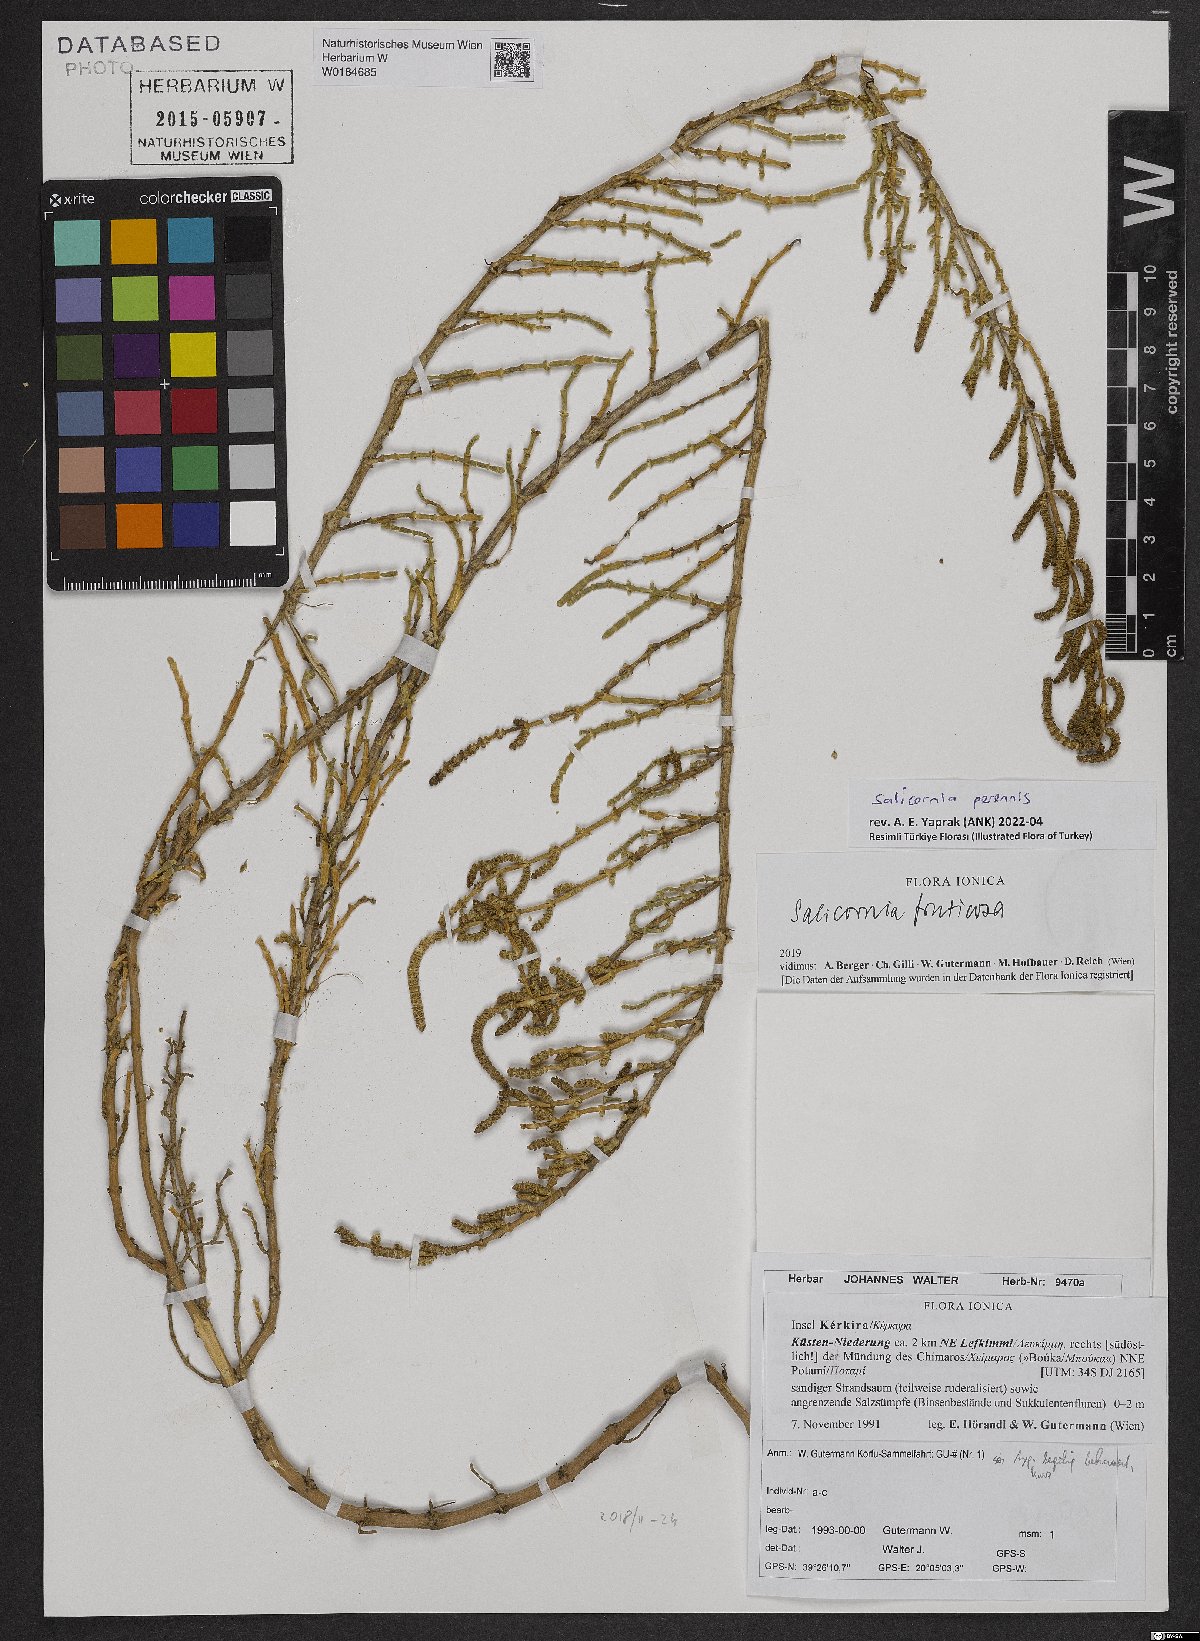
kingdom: Plantae
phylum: Tracheophyta
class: Magnoliopsida
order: Caryophyllales
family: Amaranthaceae
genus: Salicornia
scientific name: Salicornia perennis
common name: Chicken claws
